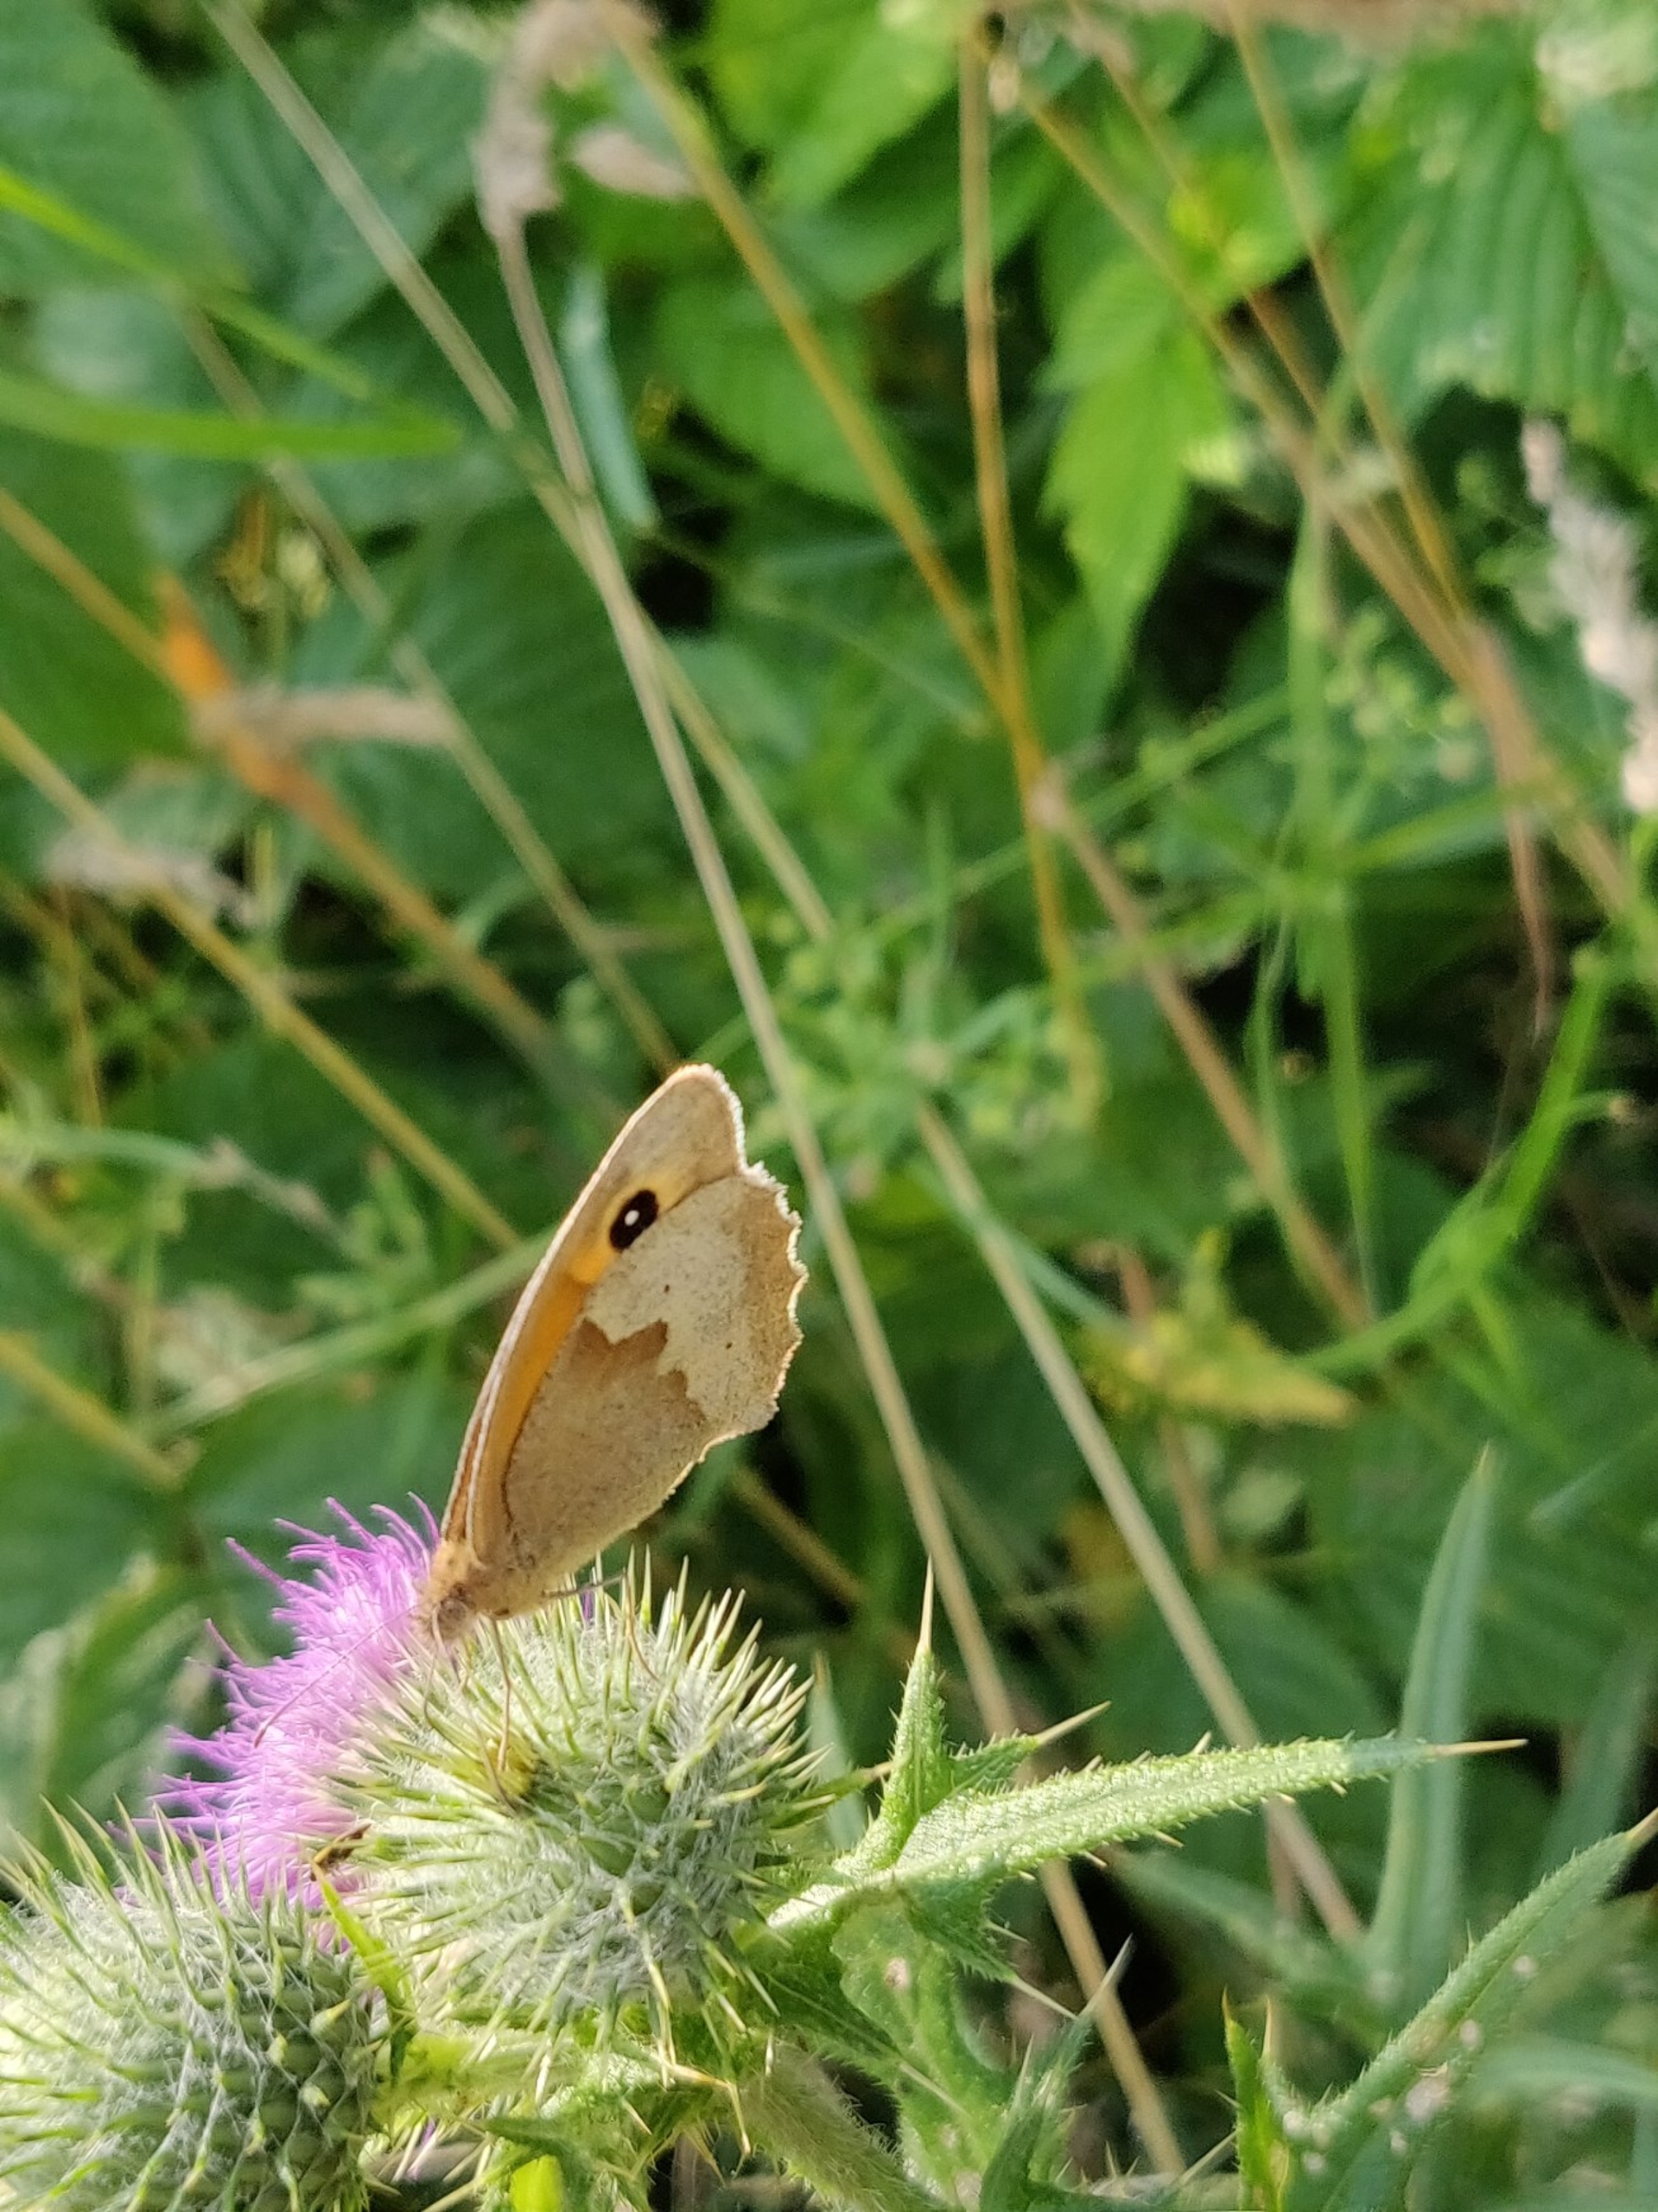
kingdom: Animalia
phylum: Arthropoda
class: Insecta
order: Lepidoptera
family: Nymphalidae
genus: Maniola
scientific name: Maniola jurtina
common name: Græsrandøje
